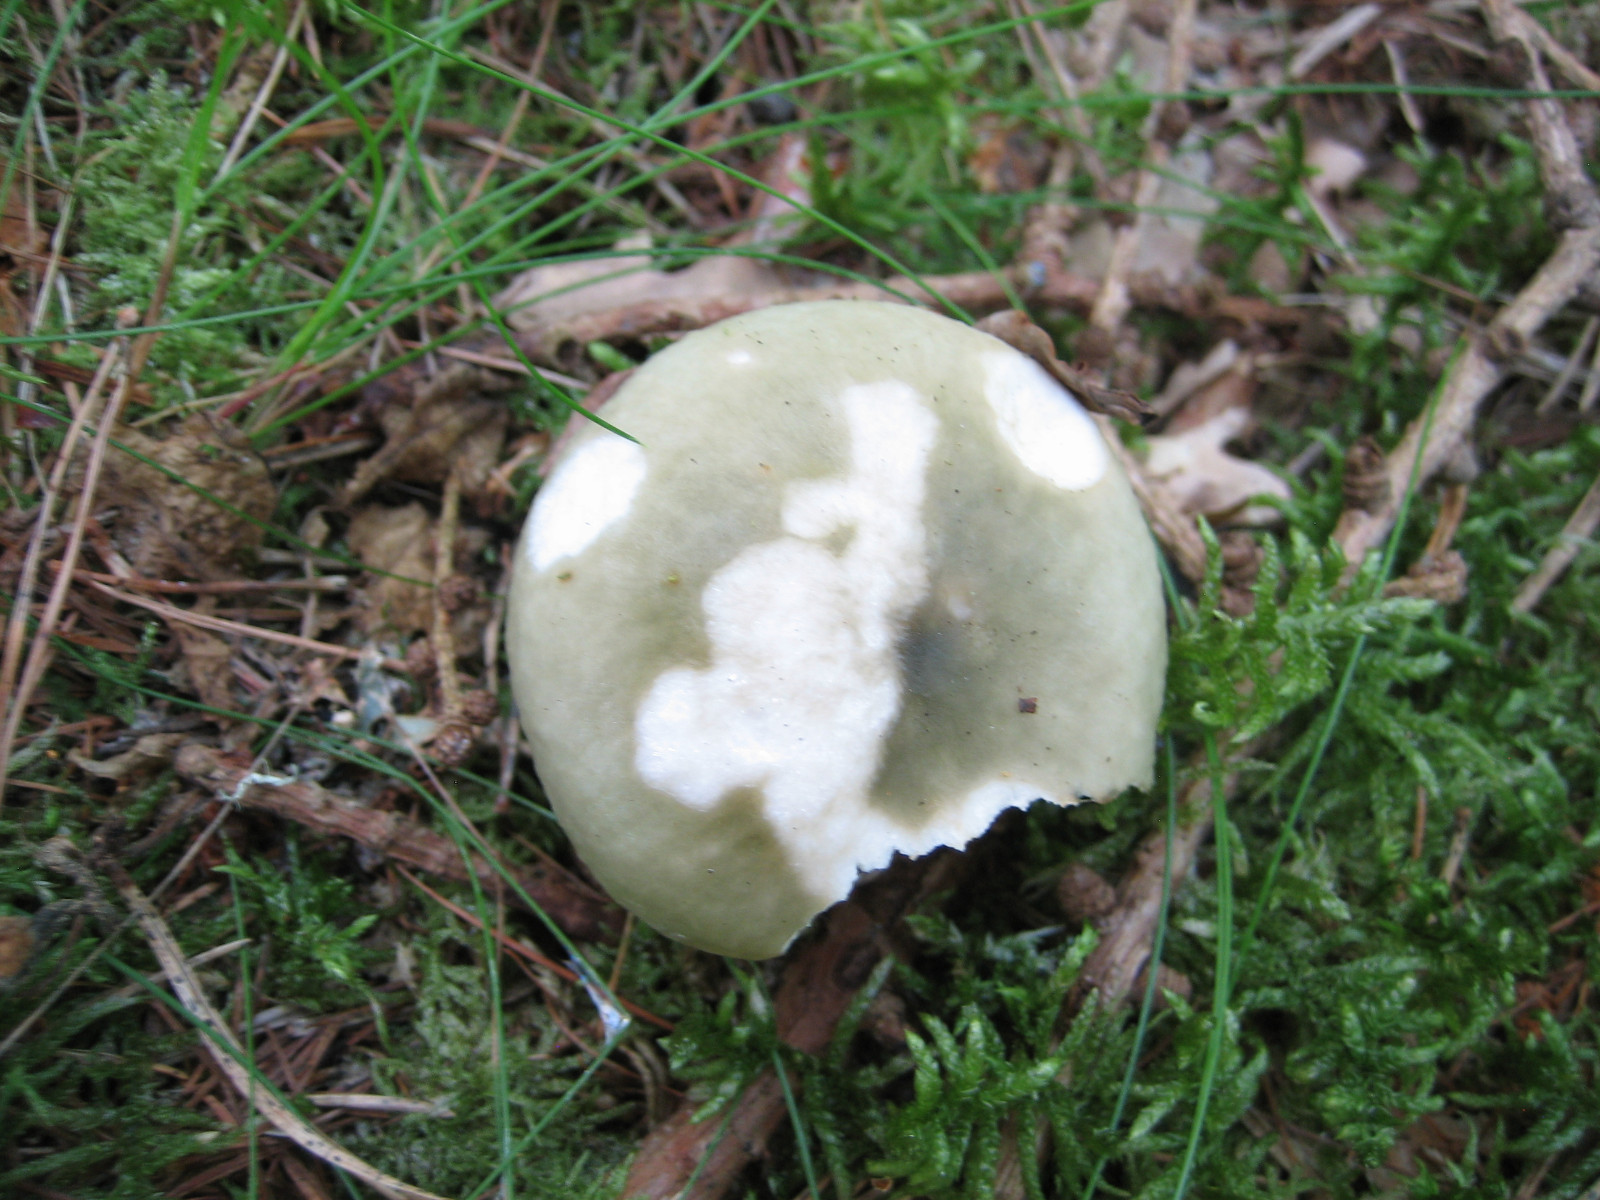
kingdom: Fungi
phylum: Basidiomycota
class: Agaricomycetes
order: Russulales
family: Russulaceae
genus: Russula
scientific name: Russula aeruginea
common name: græsgrøn skørhat
